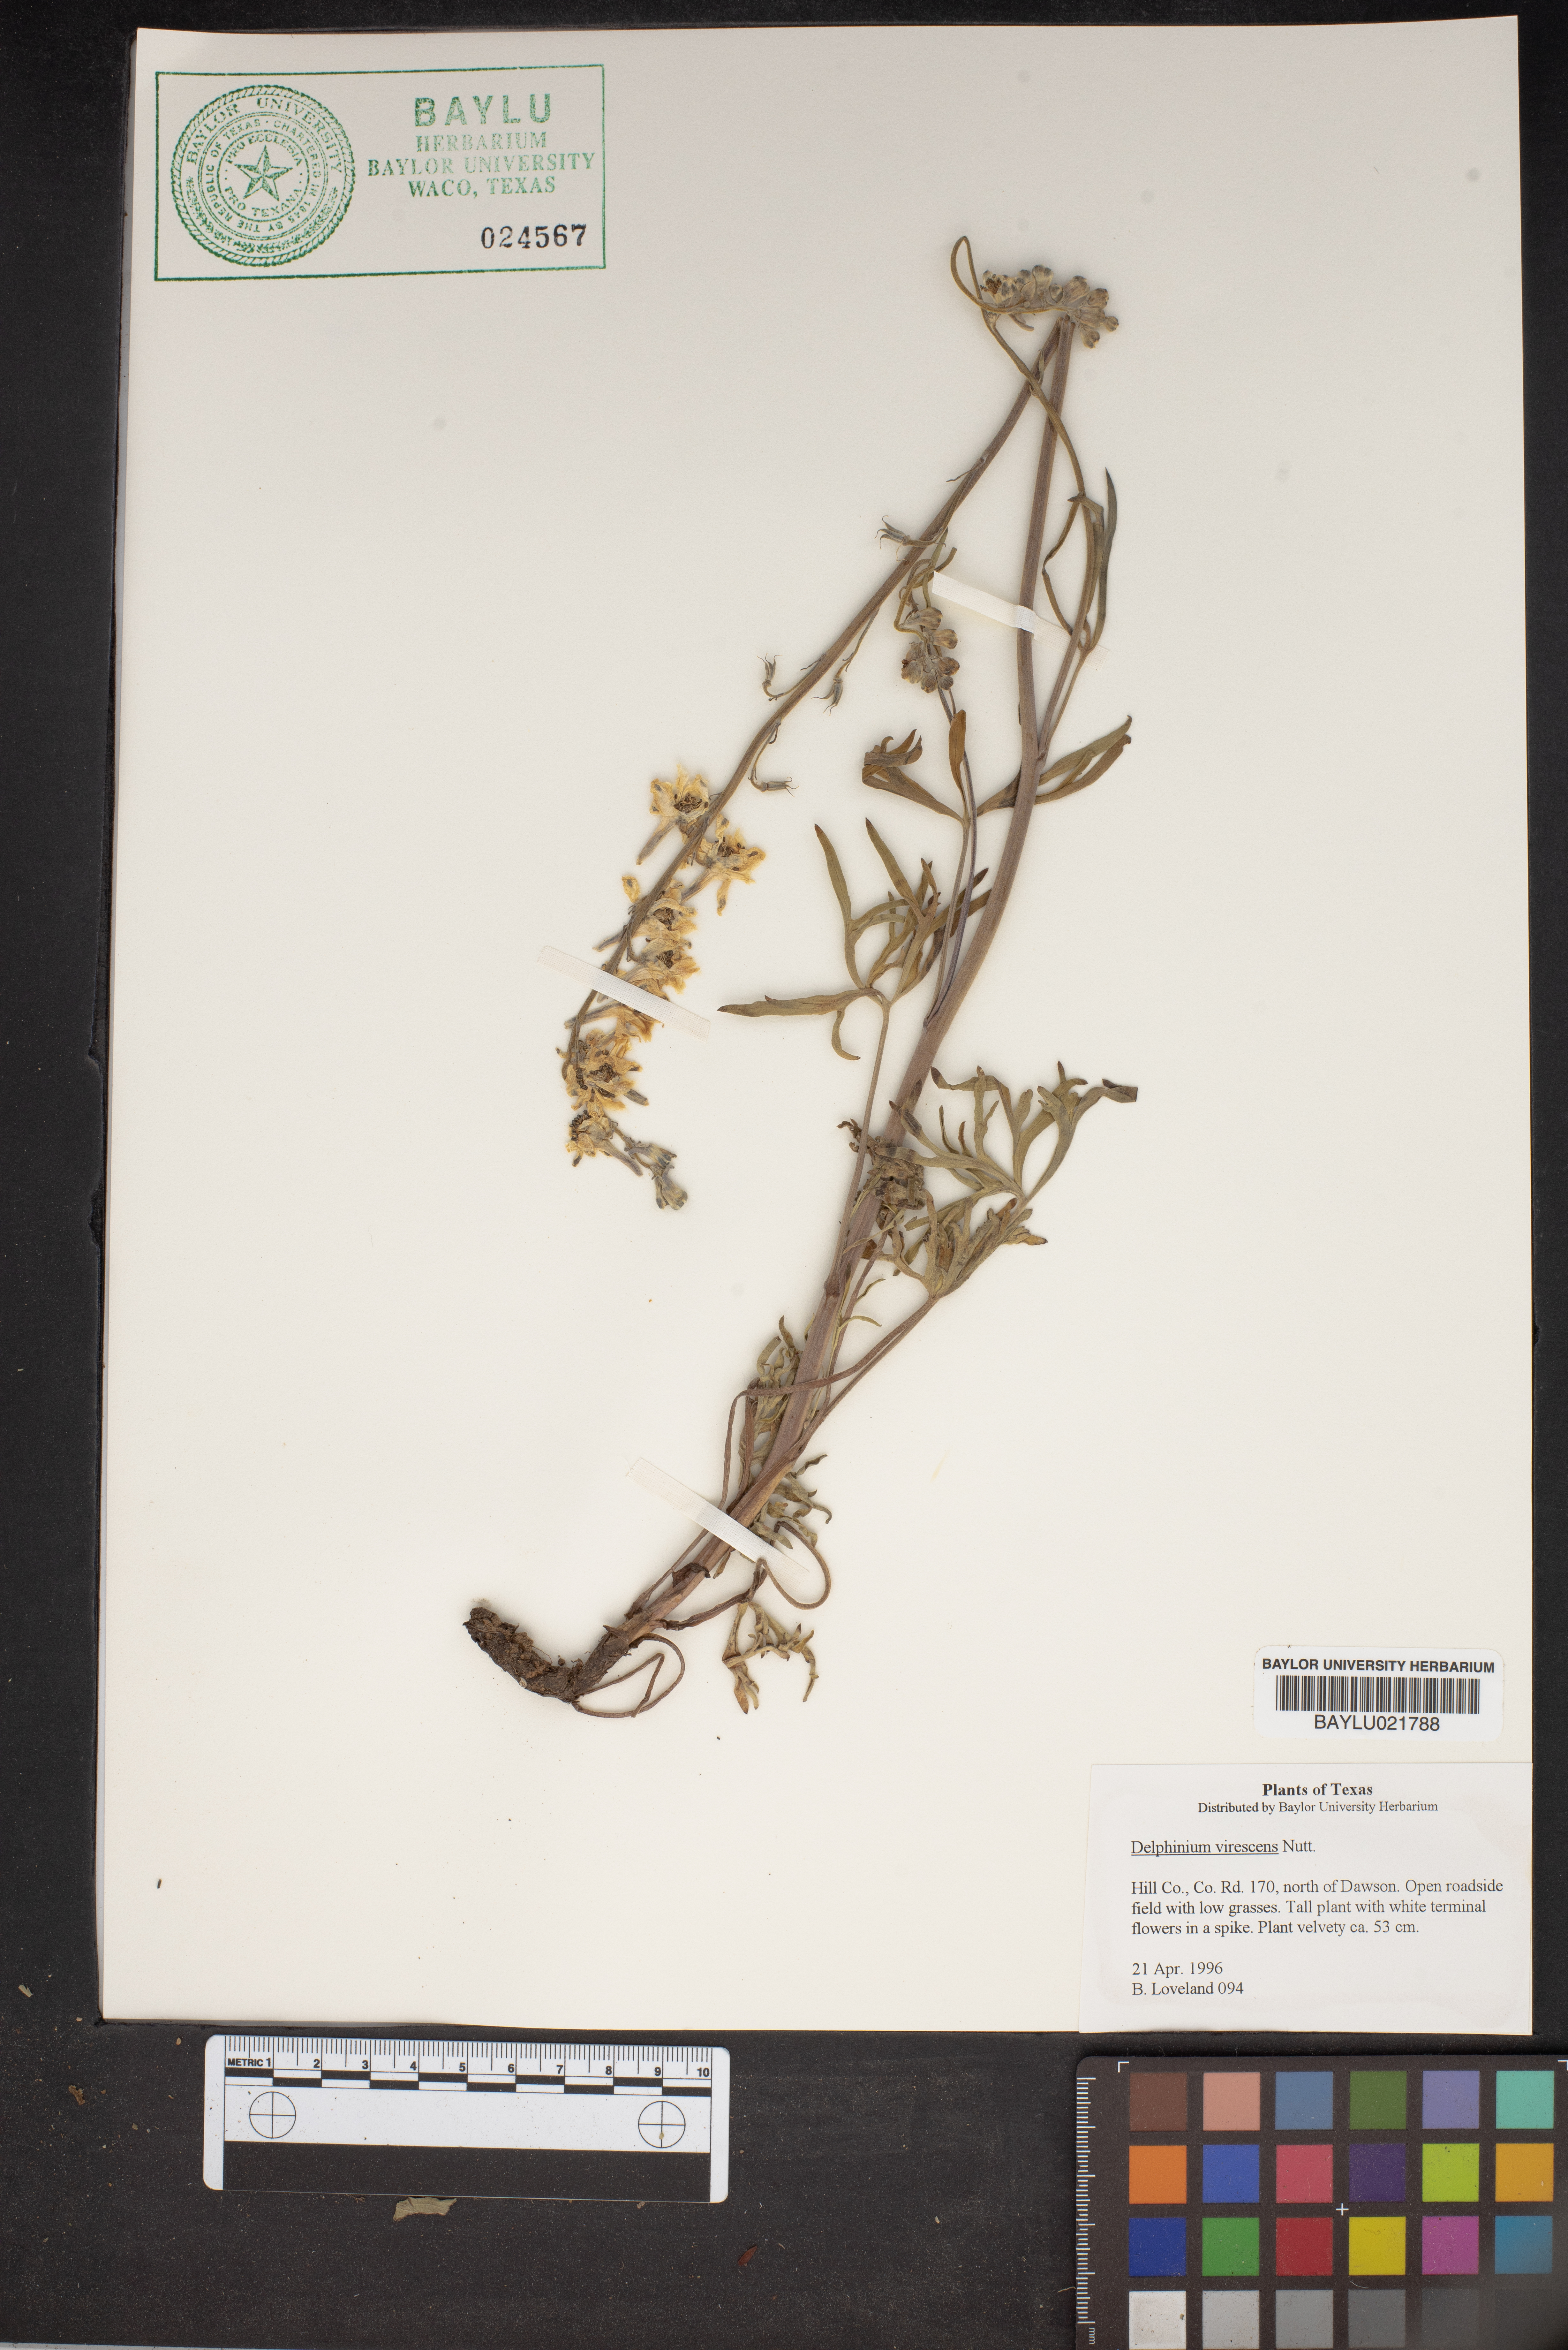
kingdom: Plantae
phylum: Tracheophyta
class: Magnoliopsida
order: Ranunculales
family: Ranunculaceae
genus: Delphinium
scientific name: Delphinium carolinianum
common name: Carolina larkspur
